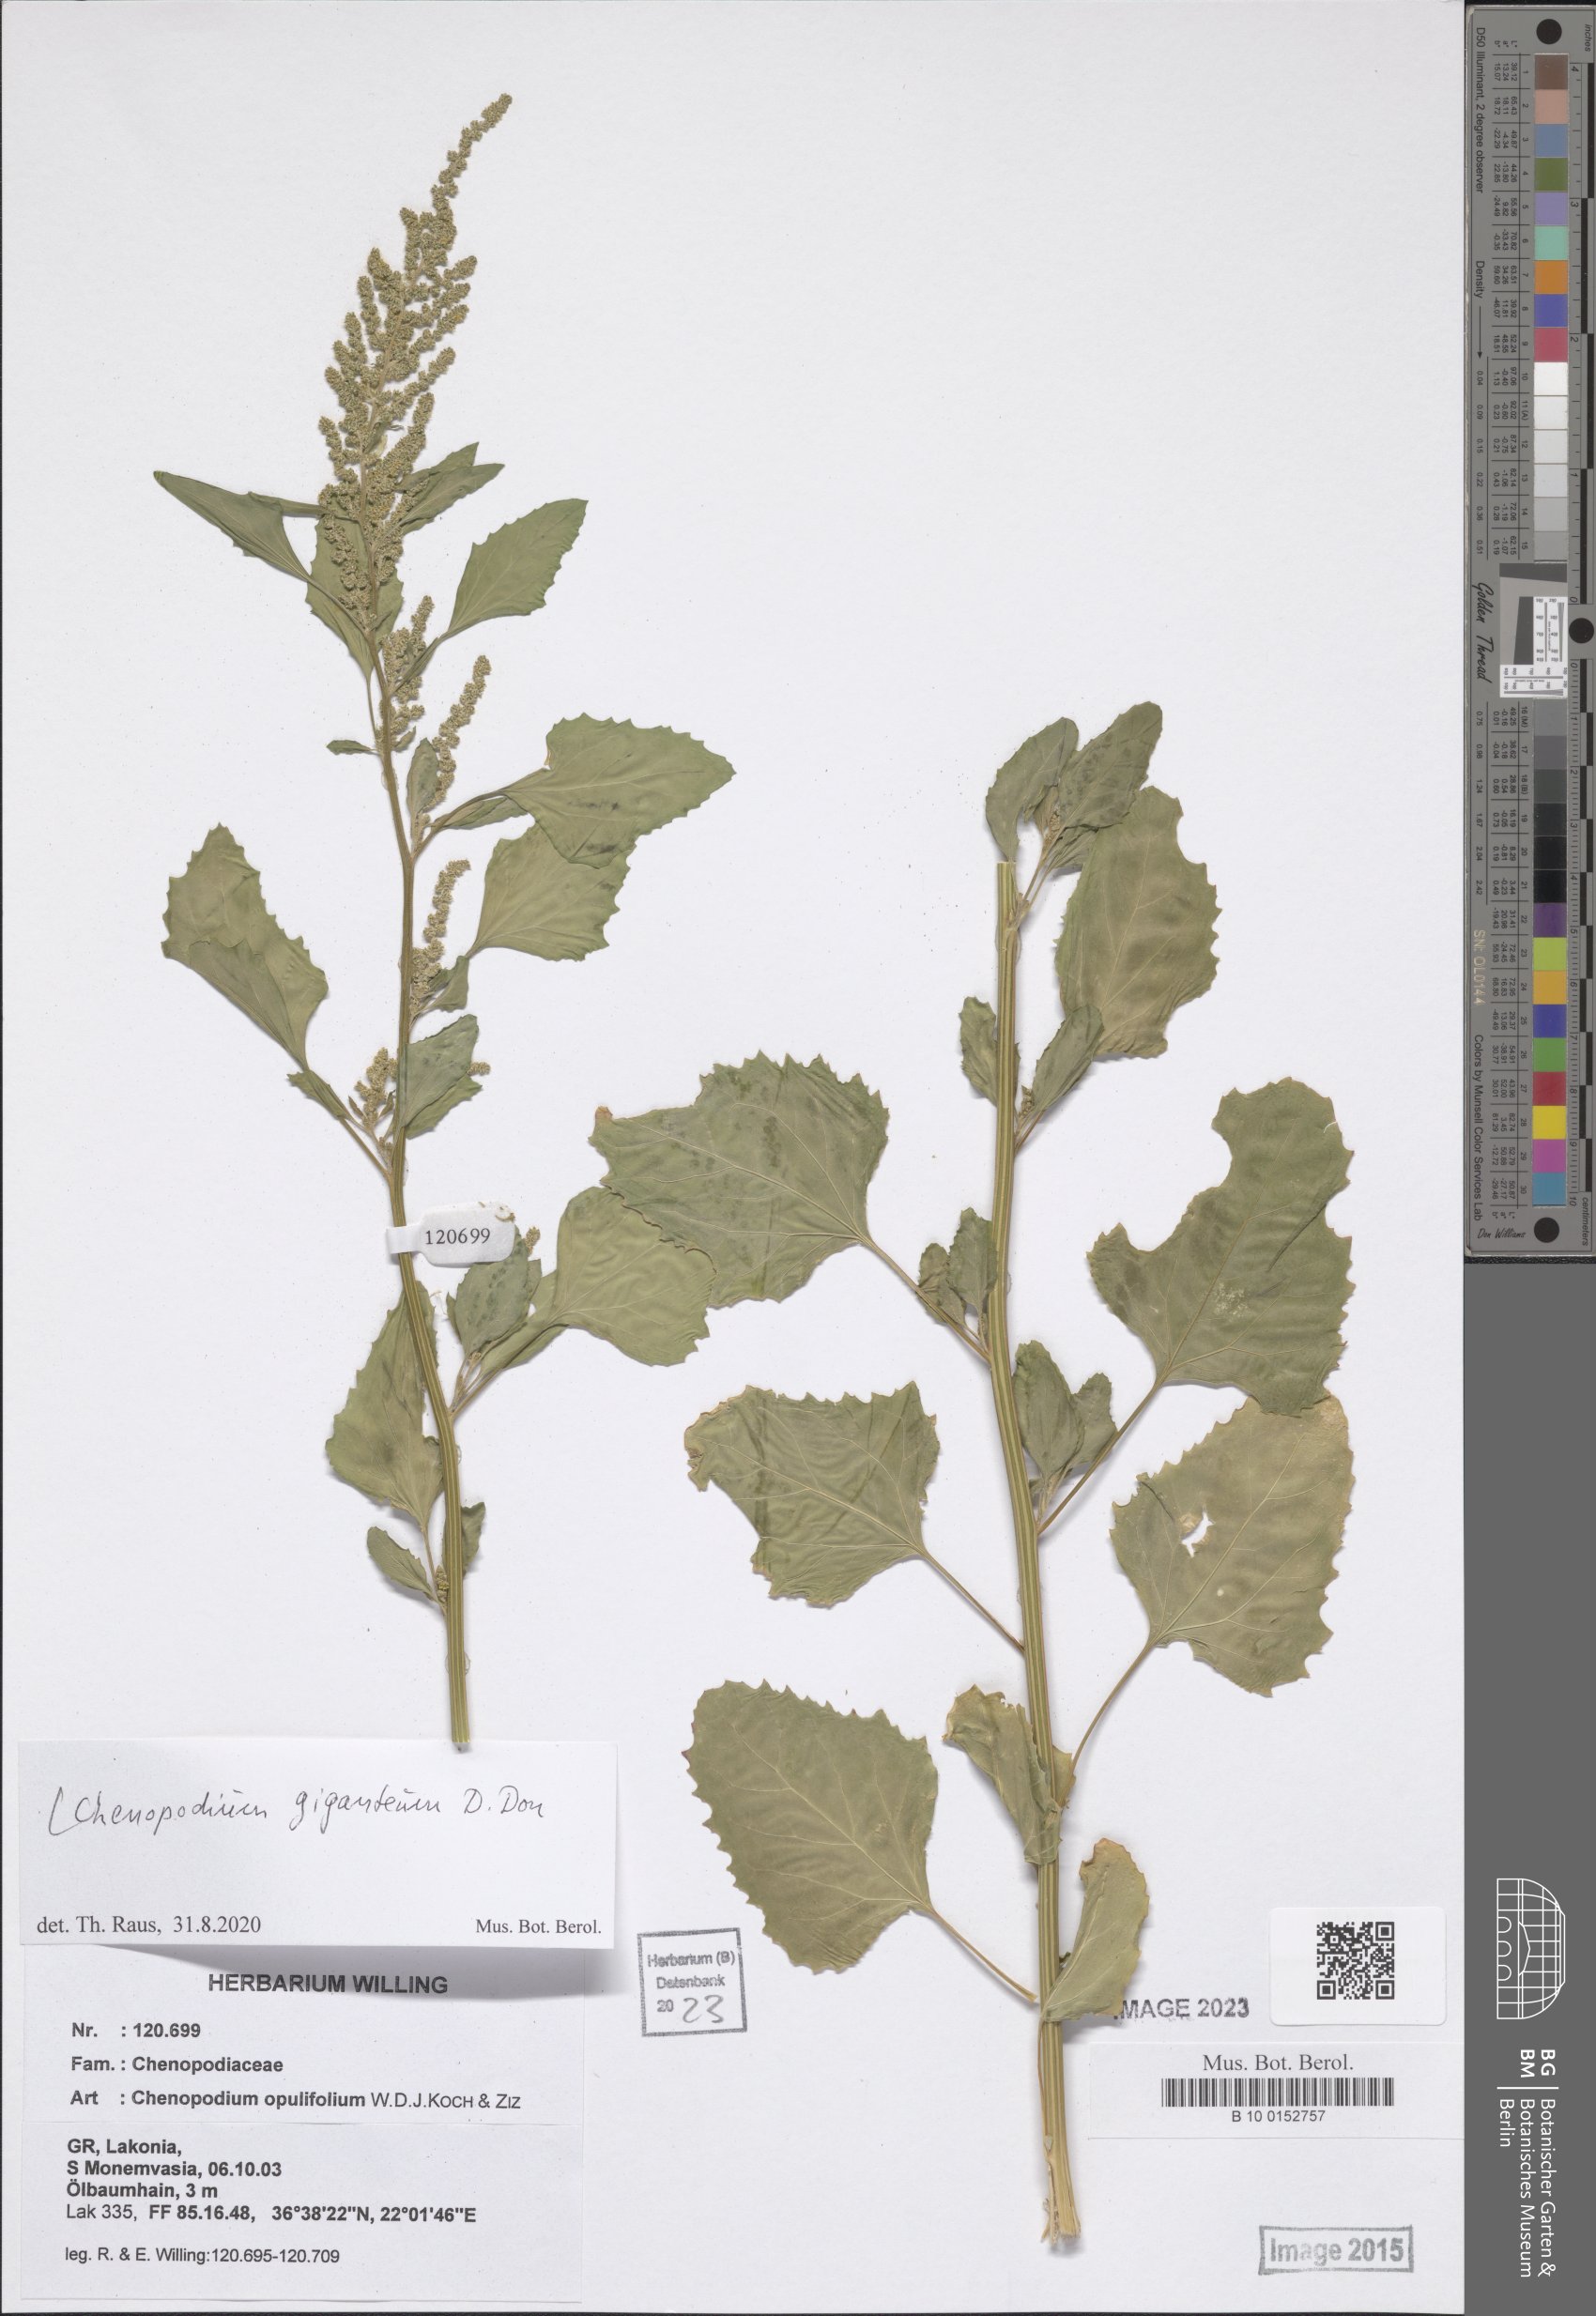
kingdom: Plantae
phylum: Tracheophyta
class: Magnoliopsida
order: Caryophyllales
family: Amaranthaceae
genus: Chenopodium
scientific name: Chenopodium giganteum
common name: Magentaspreen
